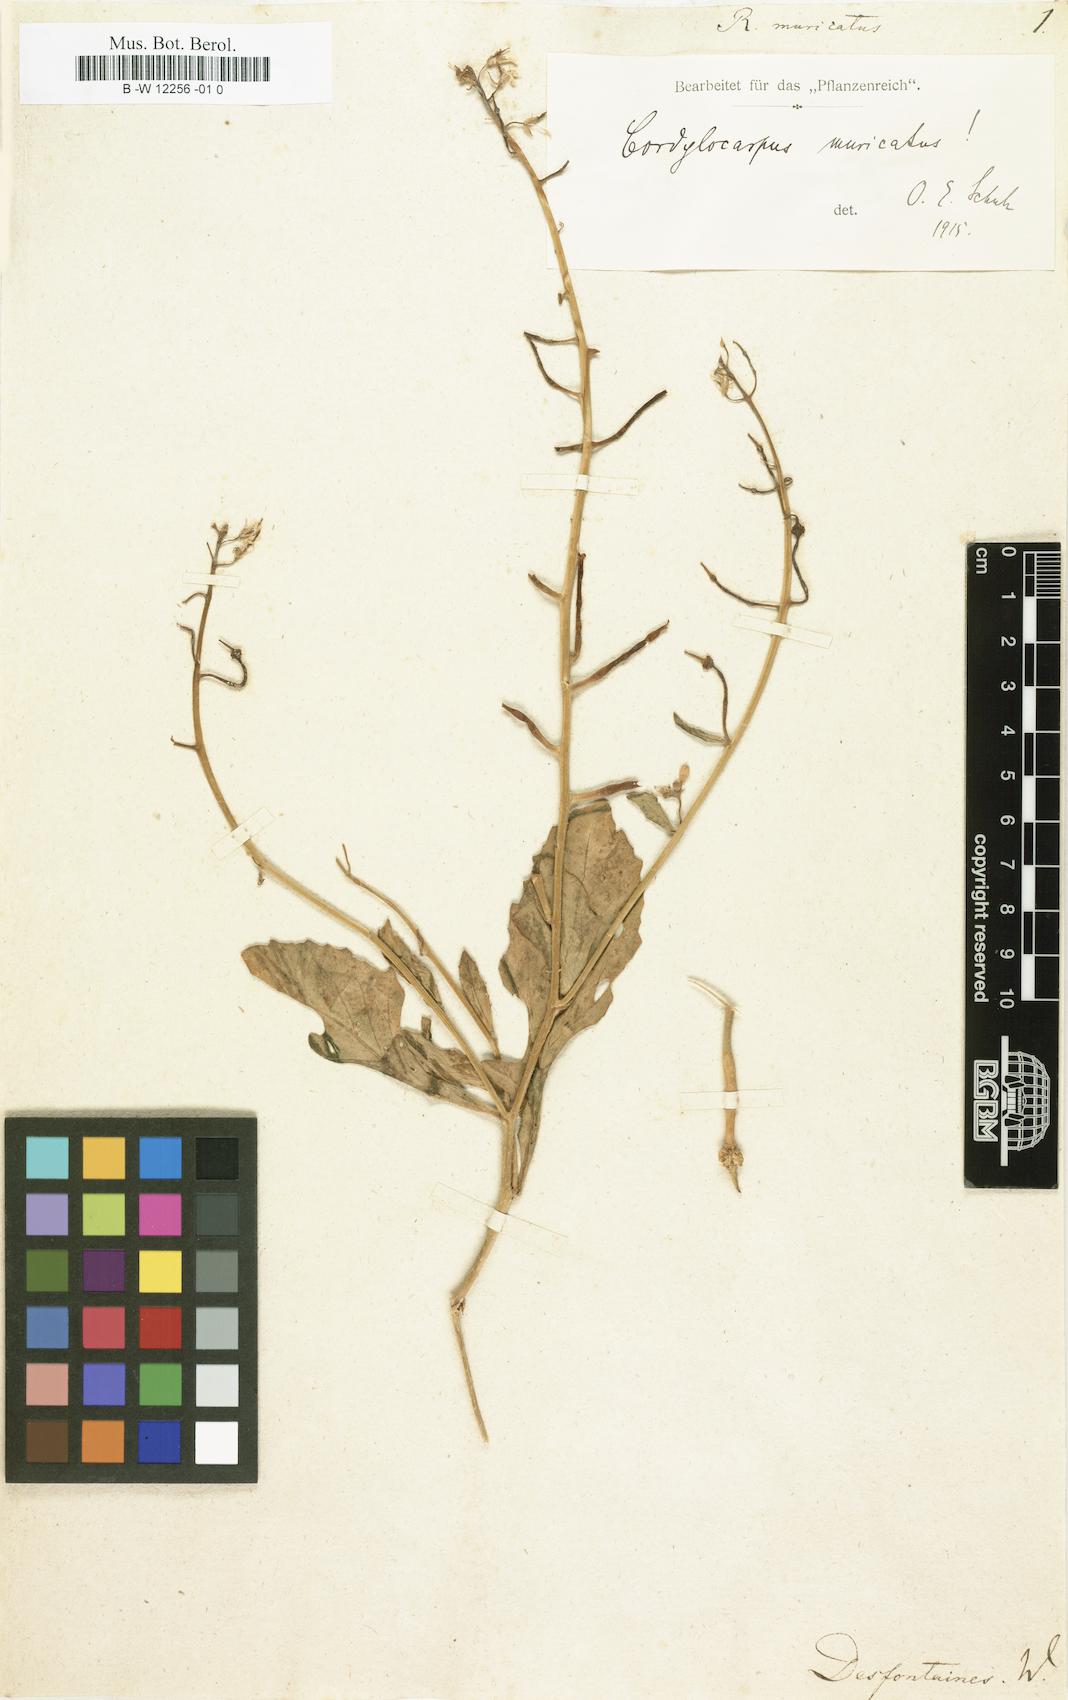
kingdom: Plantae
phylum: Tracheophyta
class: Magnoliopsida
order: Brassicales
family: Brassicaceae
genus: Cordylocarpus
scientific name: Cordylocarpus muricatus
